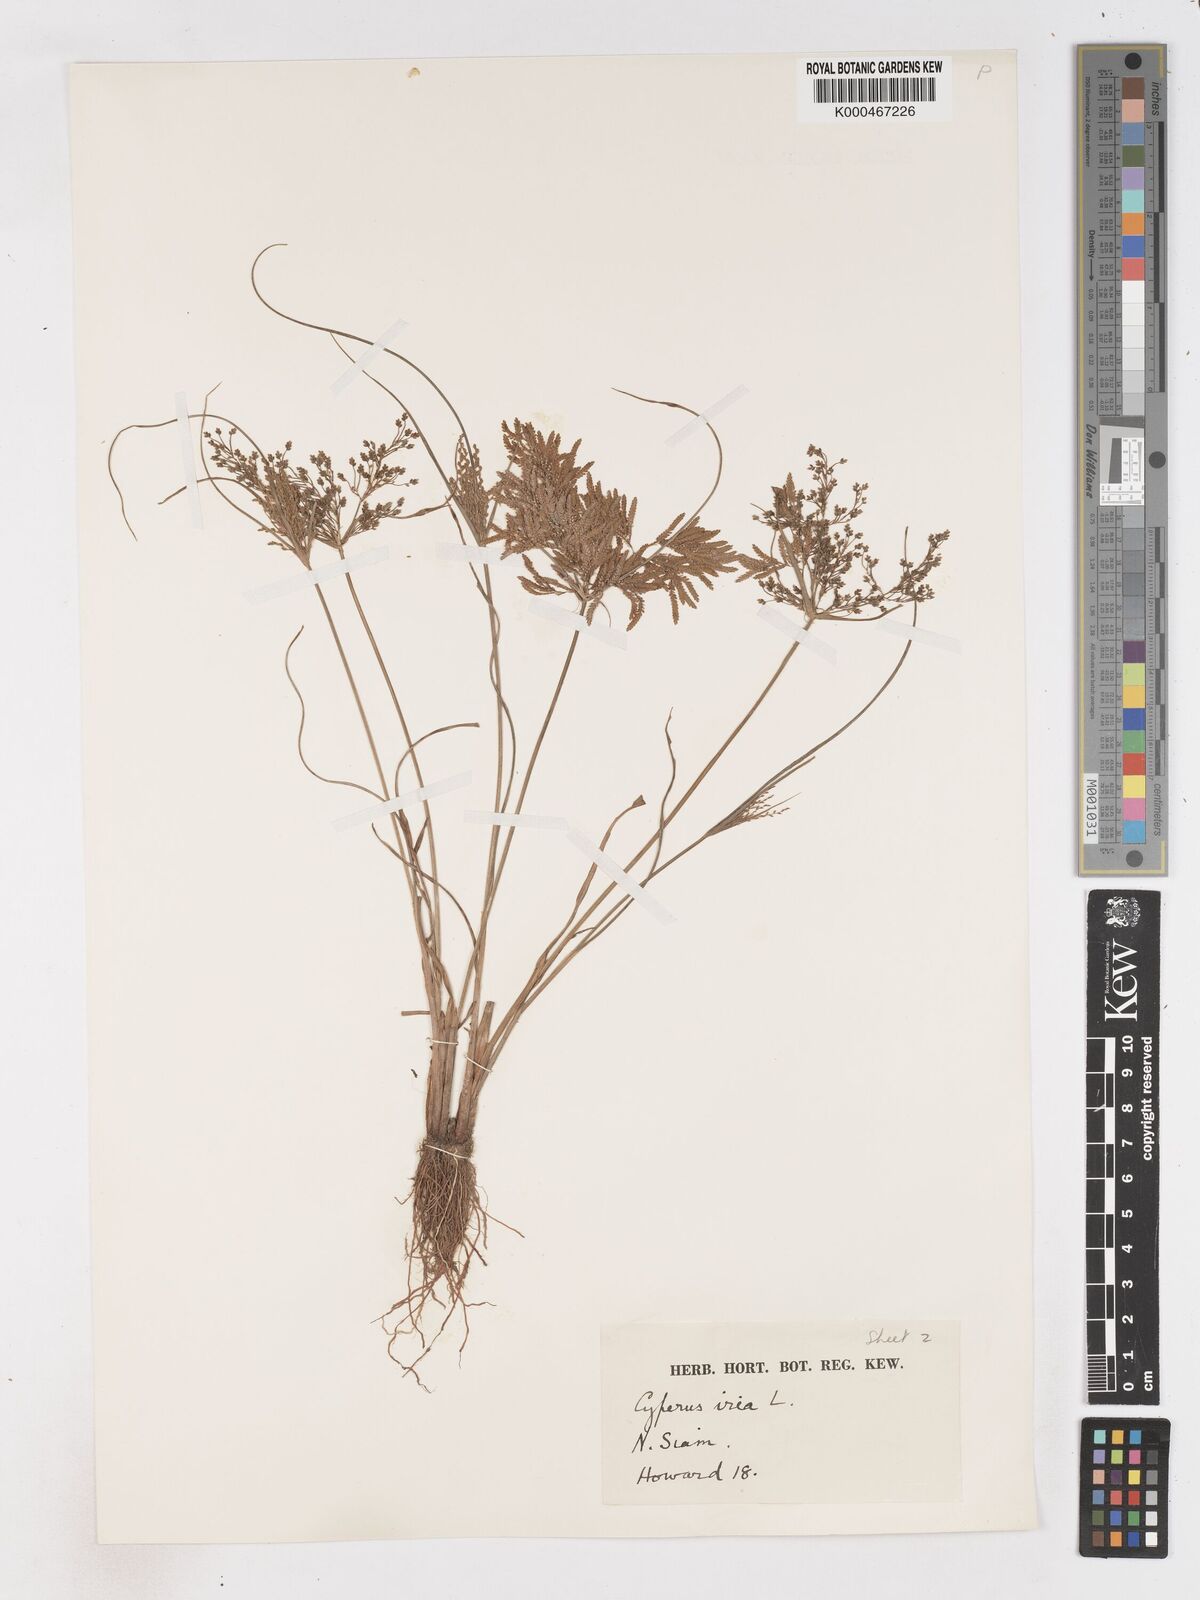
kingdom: Plantae
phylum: Tracheophyta
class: Liliopsida
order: Poales
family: Cyperaceae
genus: Cyperus
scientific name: Cyperus iria
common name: Ricefield flatsedge
